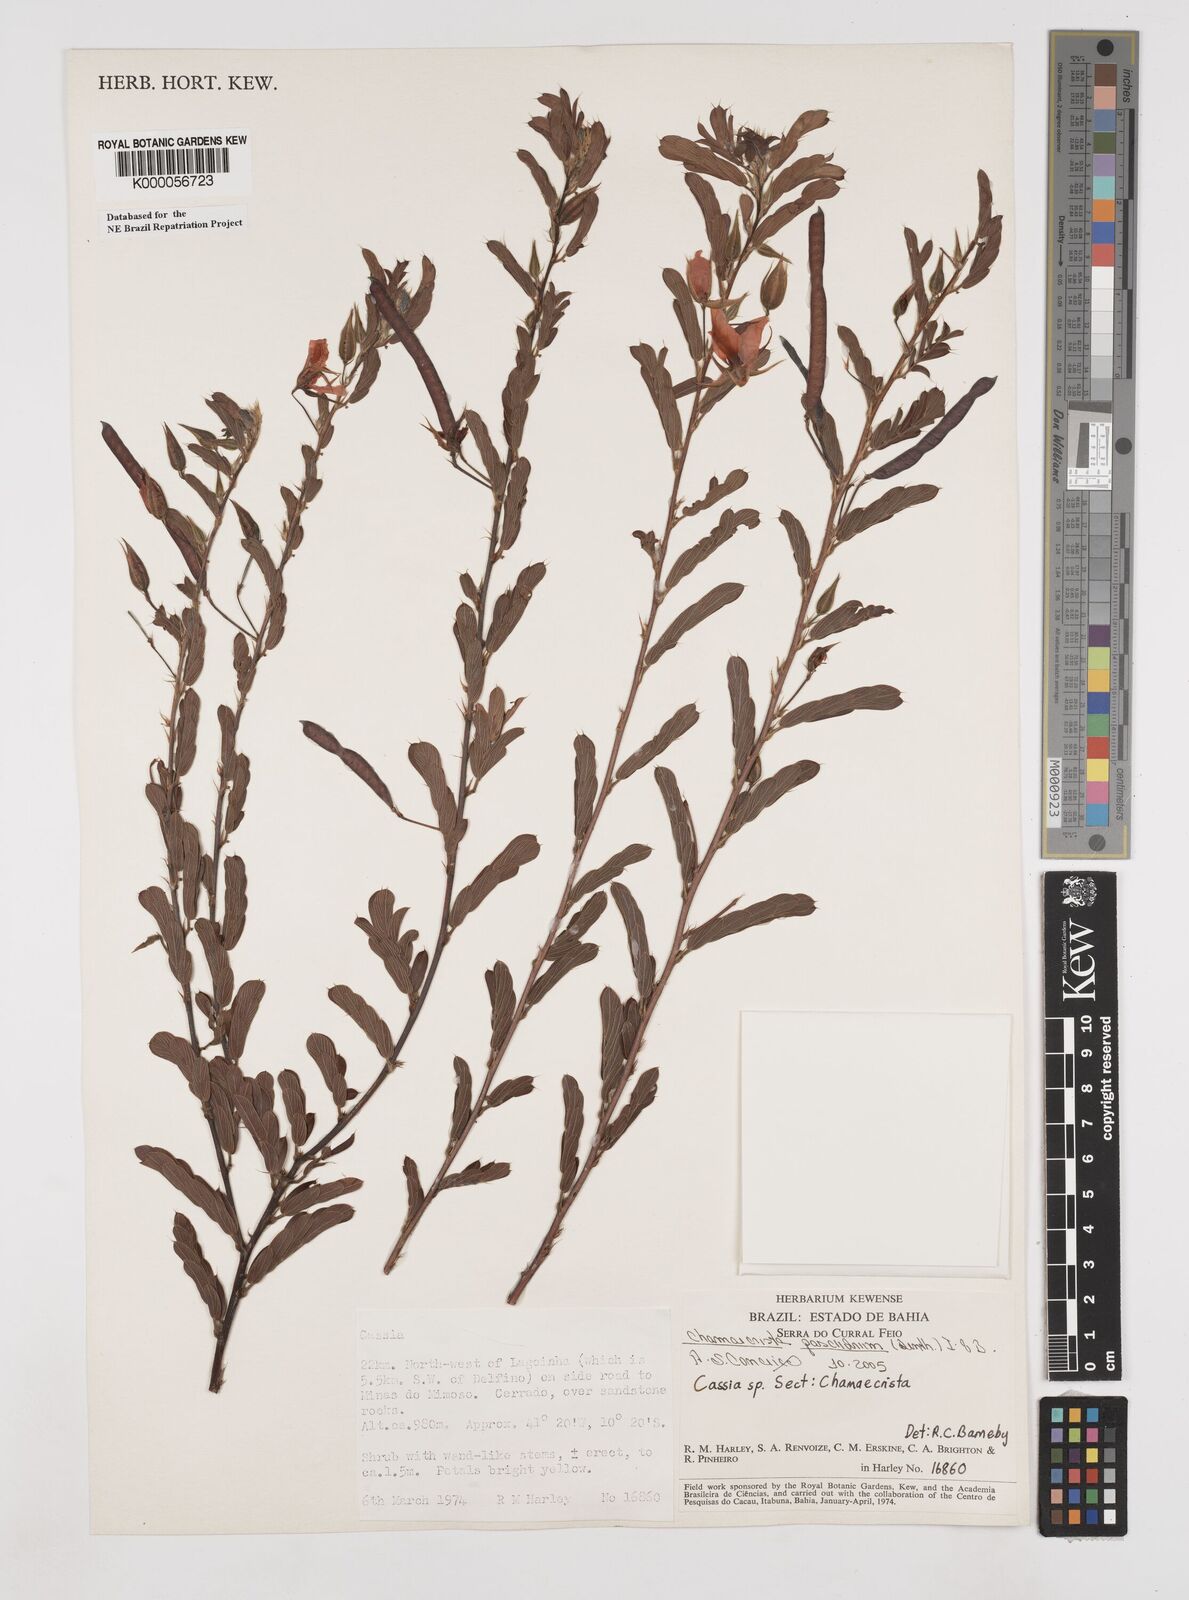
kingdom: Plantae
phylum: Tracheophyta
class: Magnoliopsida
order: Fabales
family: Fabaceae
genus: Chamaecrista
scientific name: Chamaecrista
